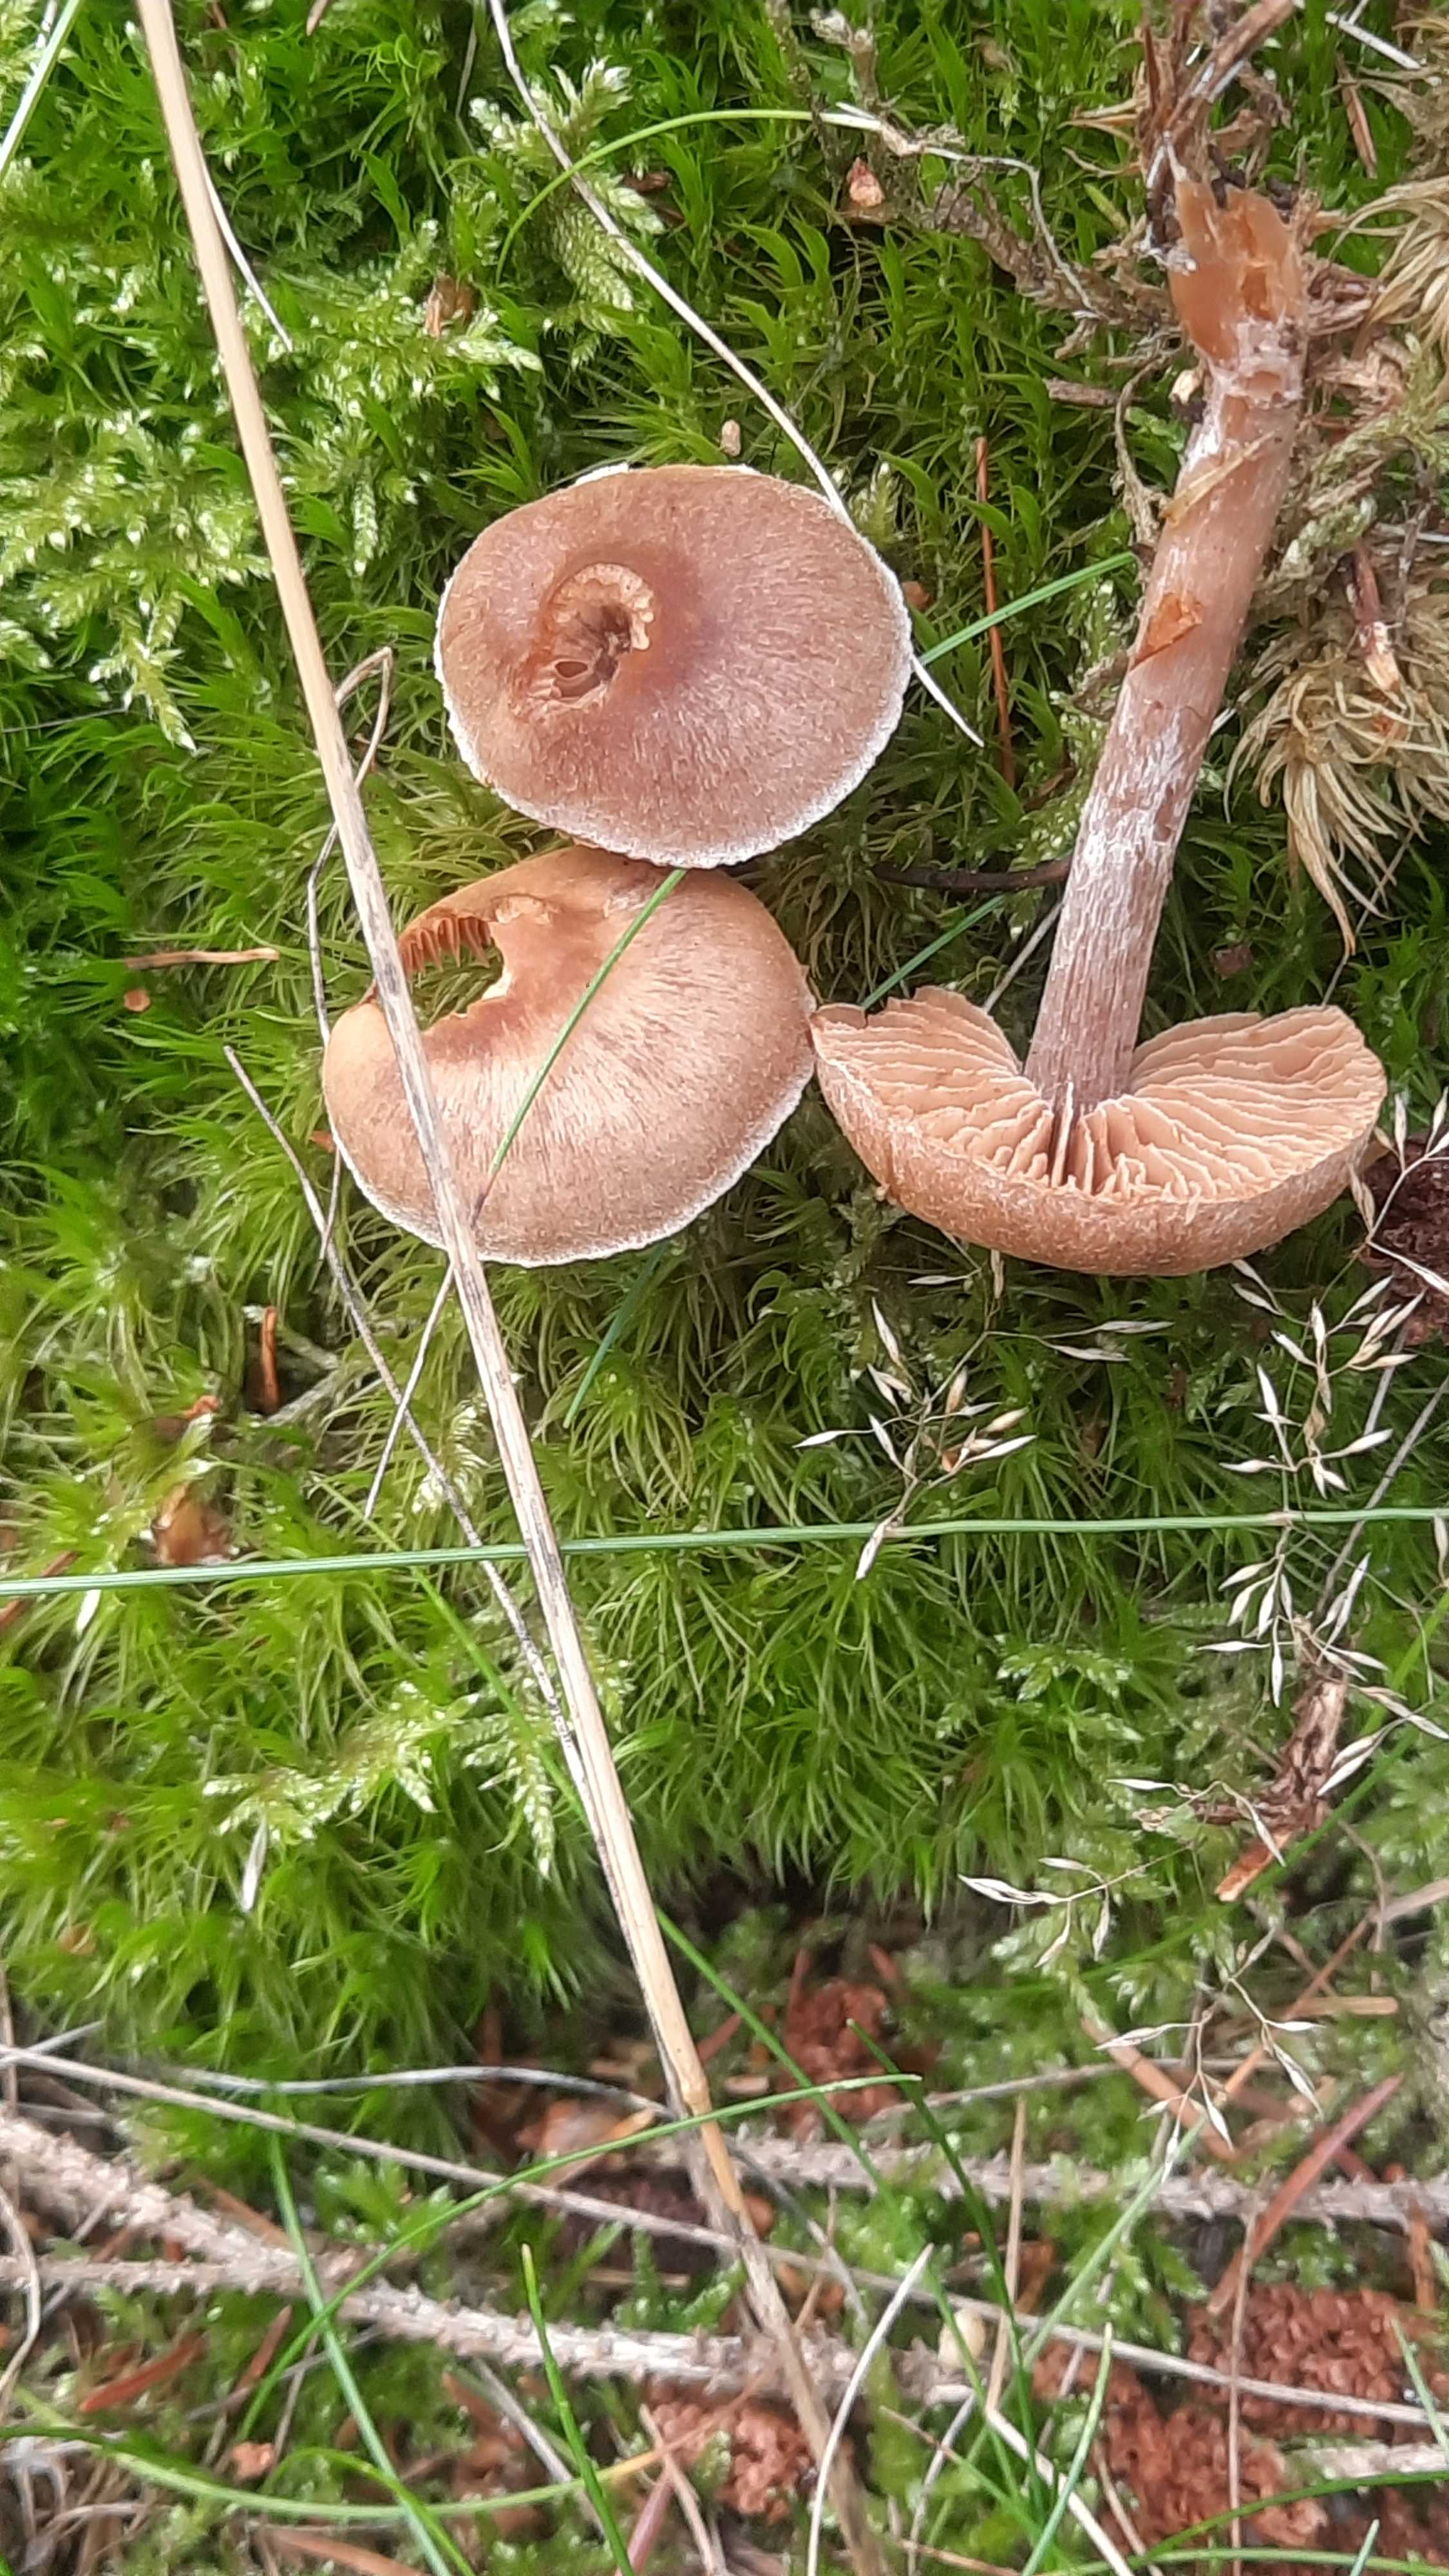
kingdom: Fungi
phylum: Basidiomycota
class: Agaricomycetes
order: Agaricales
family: Cortinariaceae
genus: Cortinarius
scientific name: Cortinarius
